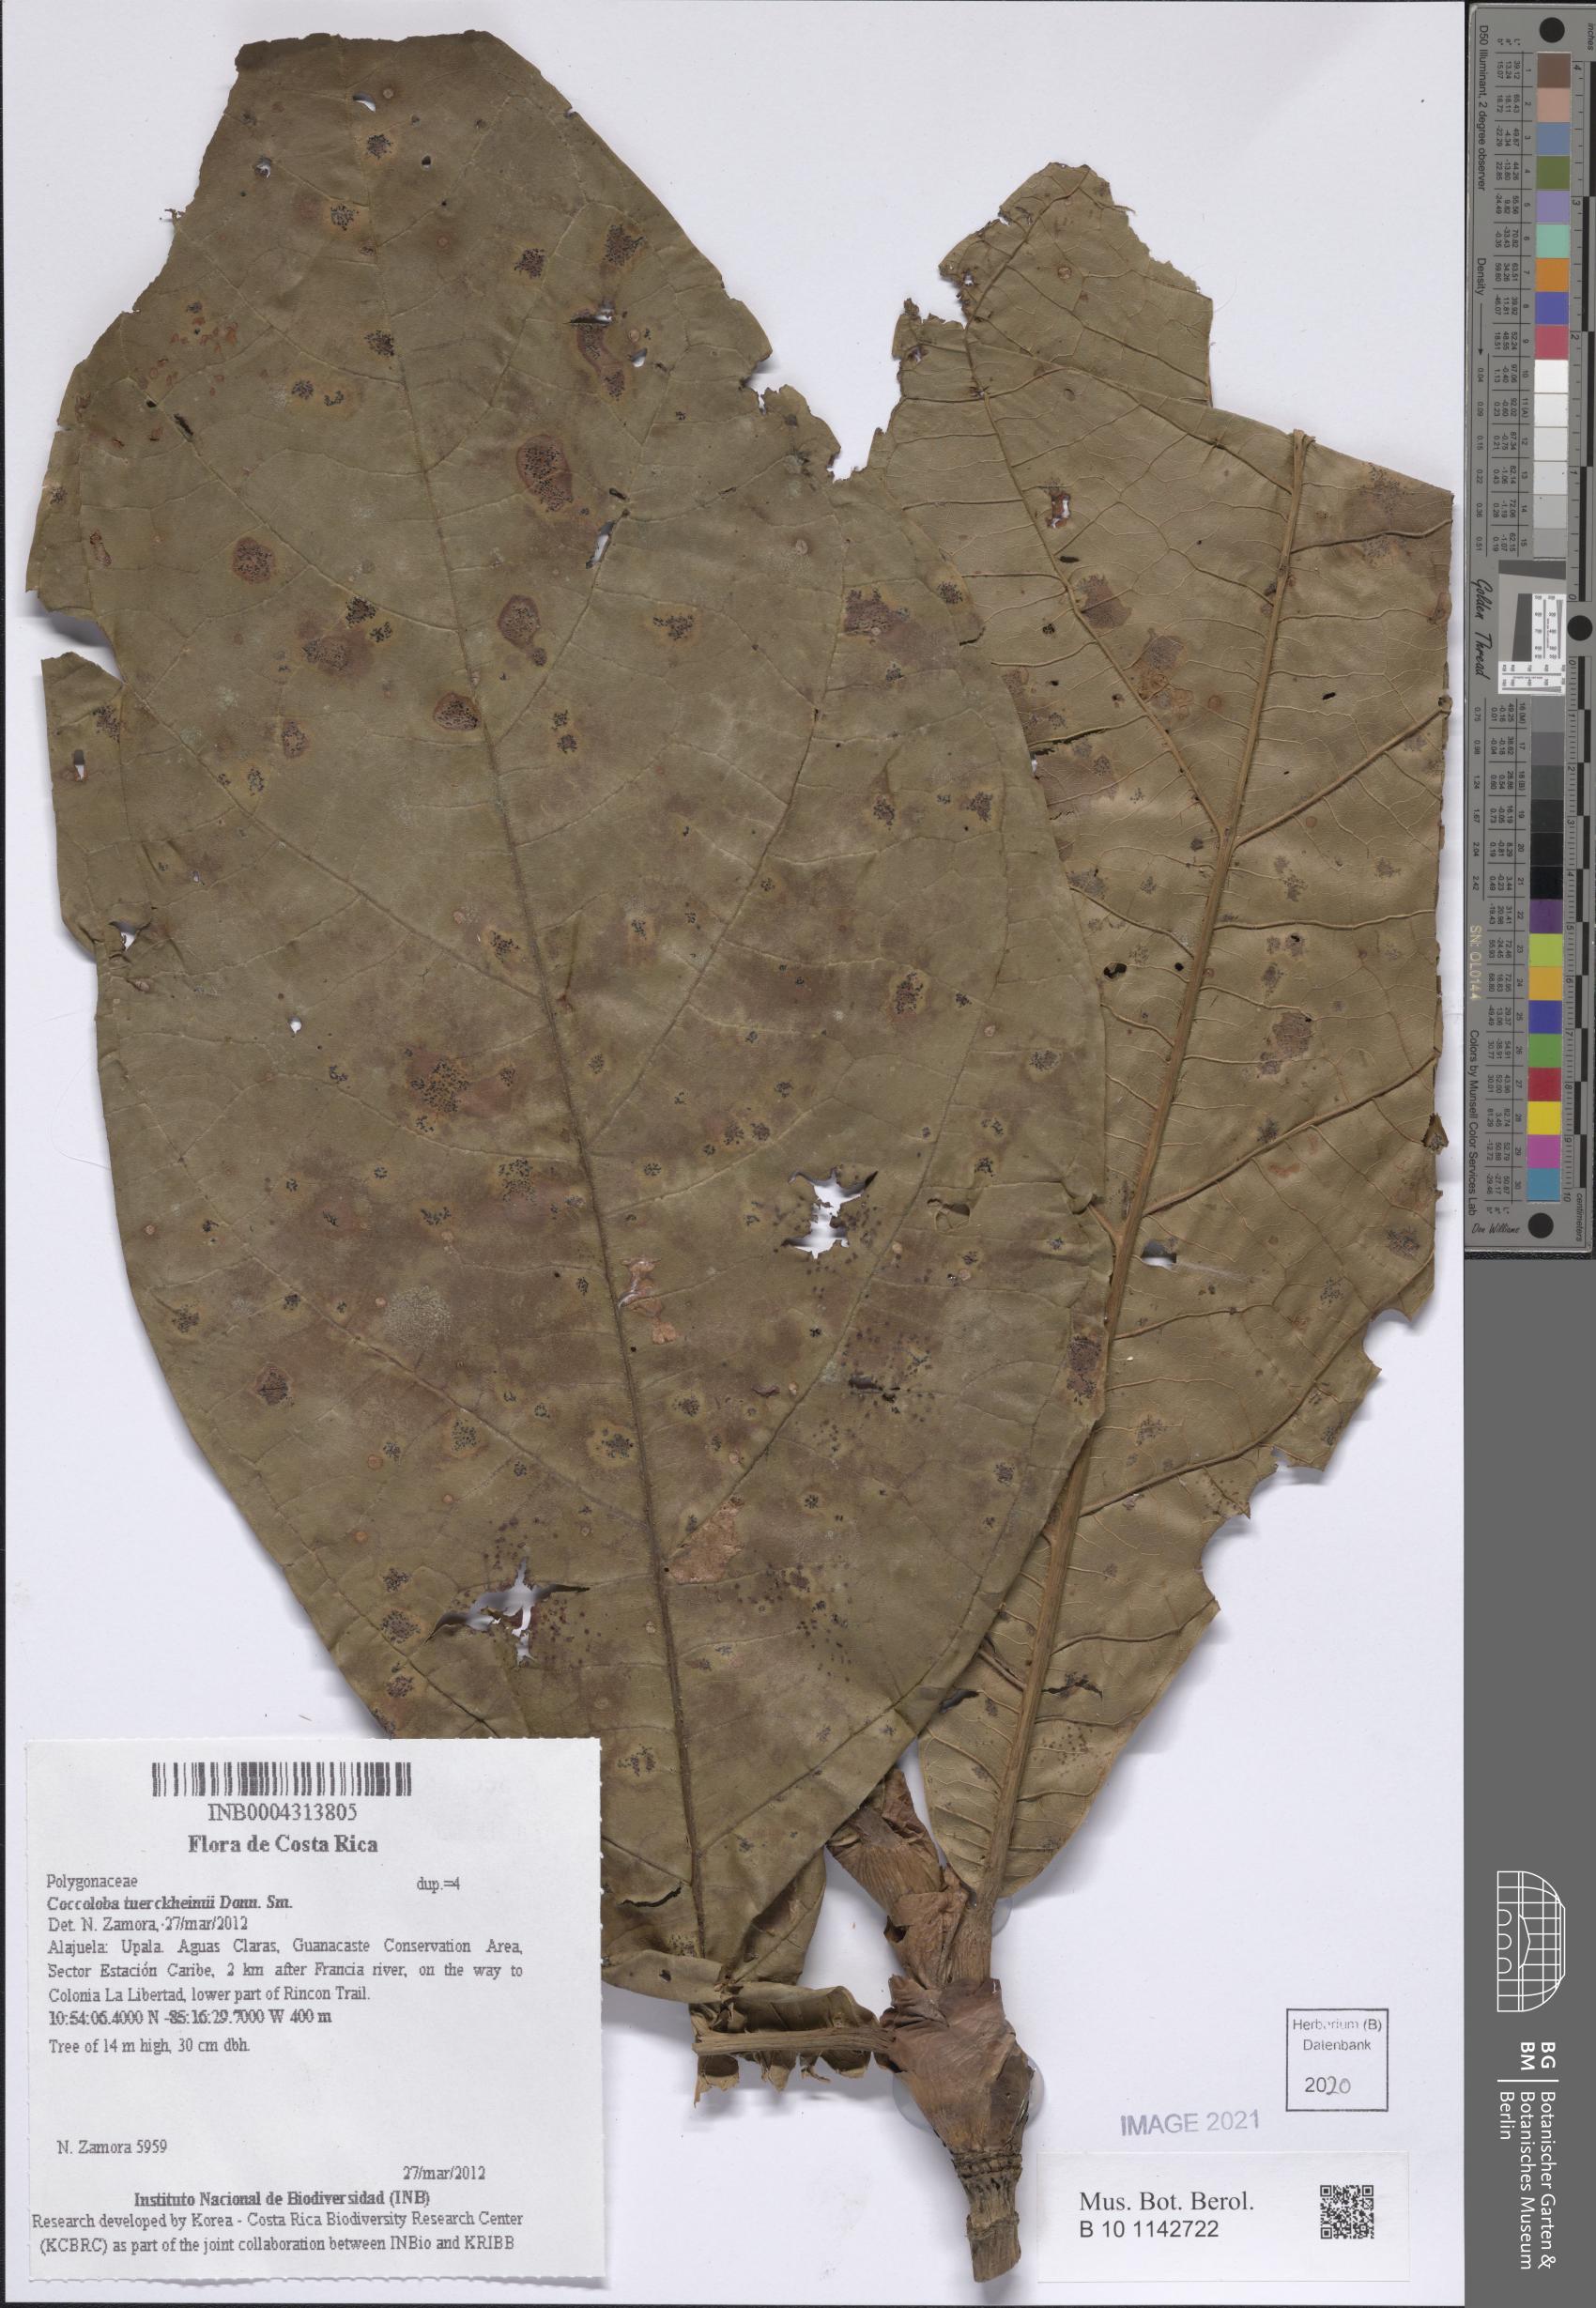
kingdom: Plantae
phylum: Tracheophyta
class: Magnoliopsida
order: Caryophyllales
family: Polygonaceae
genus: Coccoloba
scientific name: Coccoloba tuerckheimii
